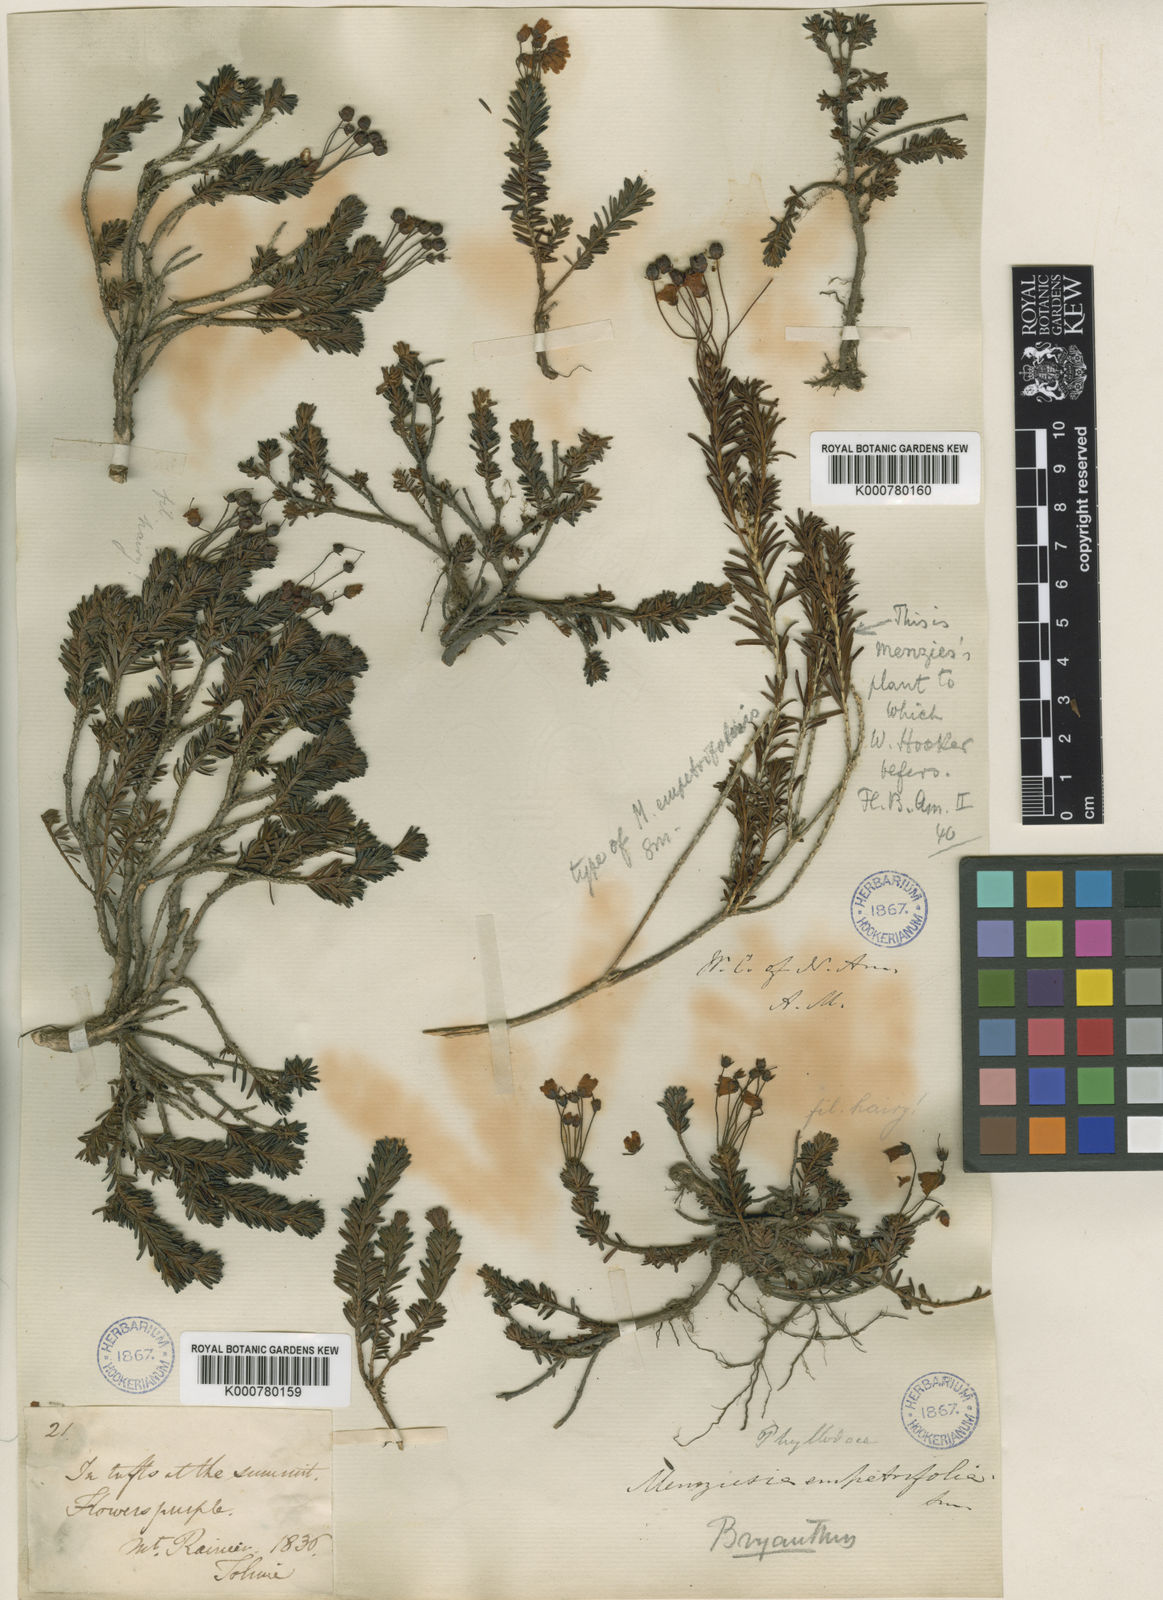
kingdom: Plantae
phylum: Tracheophyta
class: Magnoliopsida
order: Ericales
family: Ericaceae
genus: Phyllodoce
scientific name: Phyllodoce empetriformis
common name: Pink mountain heather
